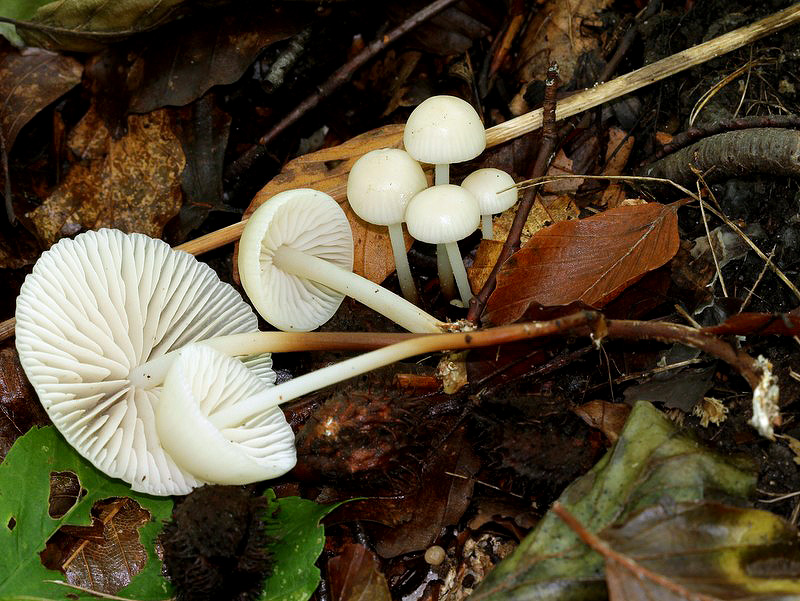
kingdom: Fungi
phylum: Basidiomycota
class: Agaricomycetes
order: Agaricales
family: Marasmiaceae
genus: Marasmius
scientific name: Marasmius wynneae
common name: hvælvet bruskhat
